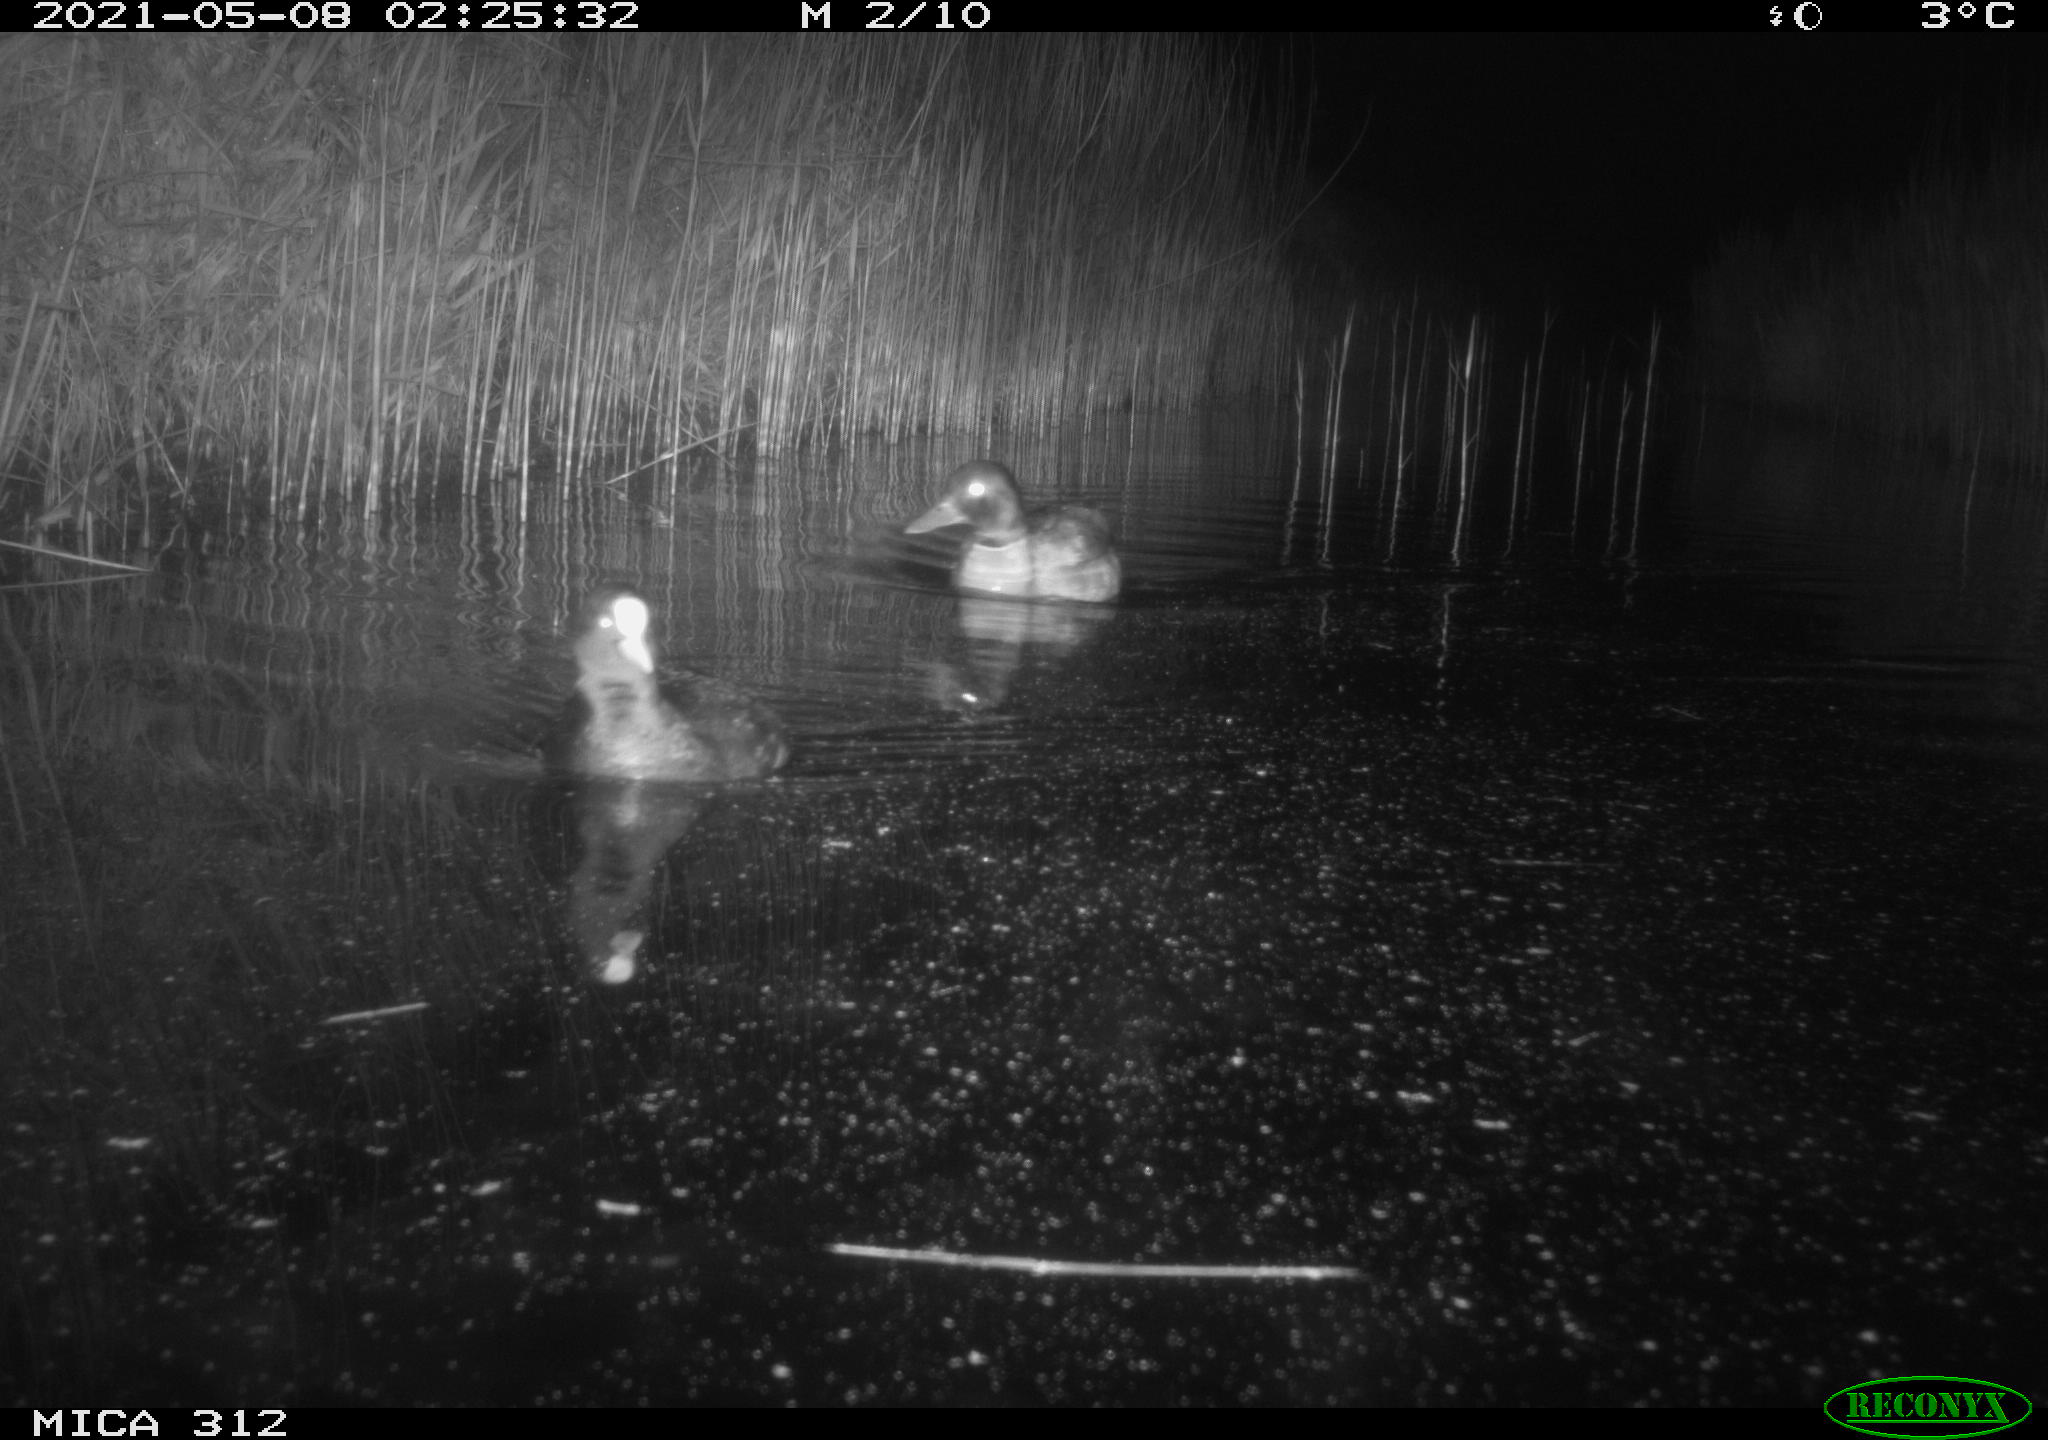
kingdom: Animalia
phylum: Chordata
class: Aves
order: Anseriformes
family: Anatidae
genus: Anas
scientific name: Anas platyrhynchos
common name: Mallard
